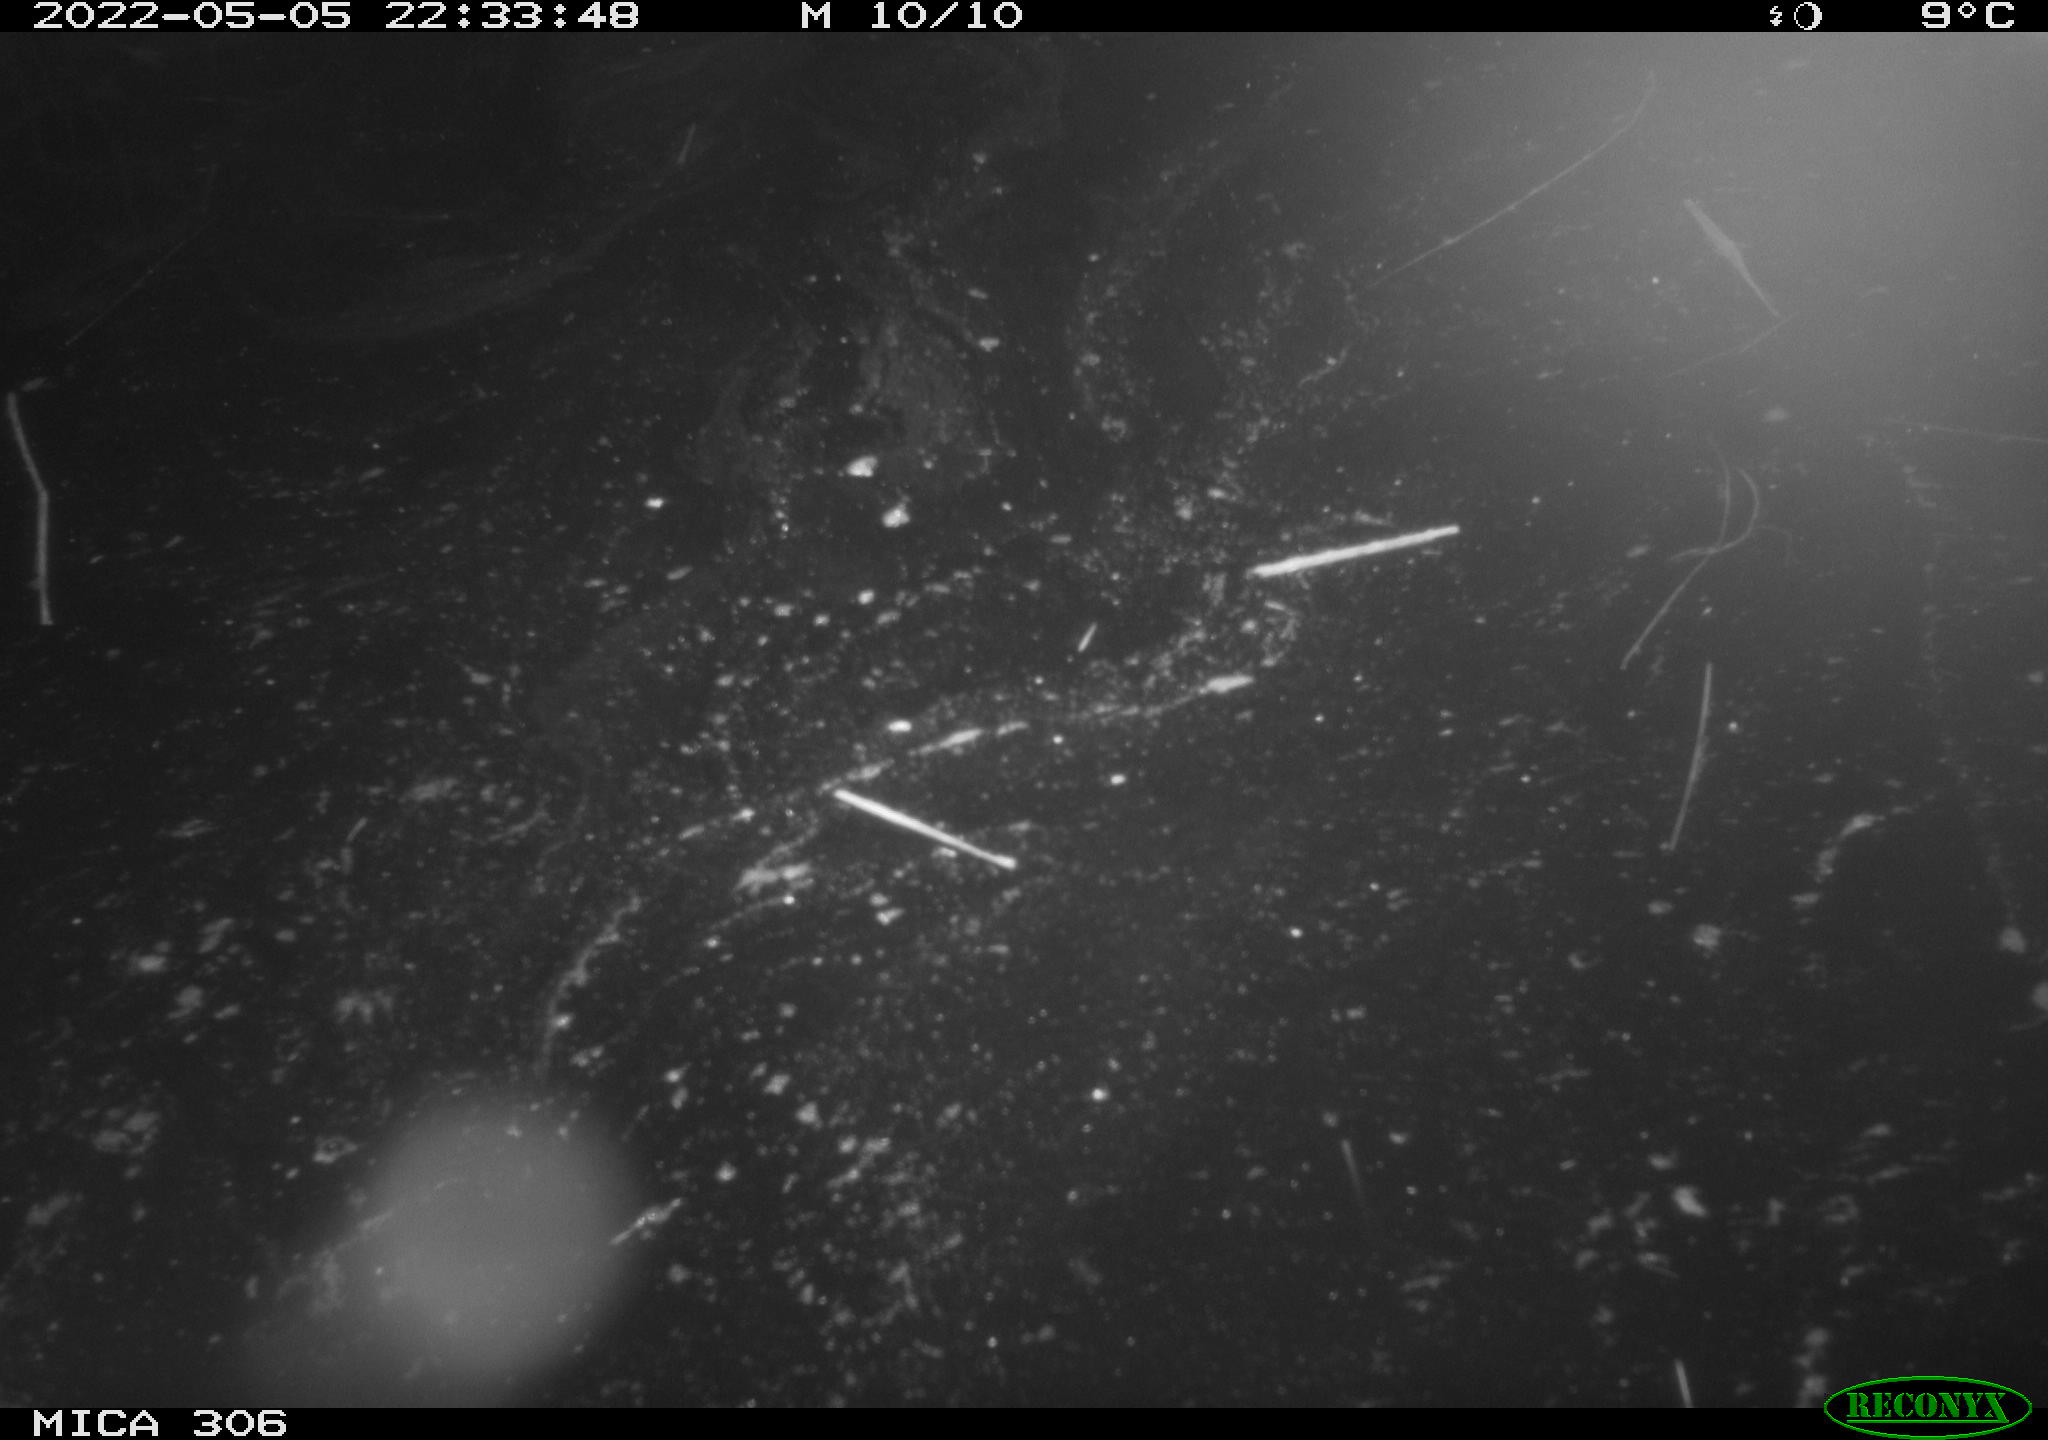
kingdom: Animalia
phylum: Chordata
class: Aves
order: Anseriformes
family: Anatidae
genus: Anas
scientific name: Anas platyrhynchos
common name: Mallard
